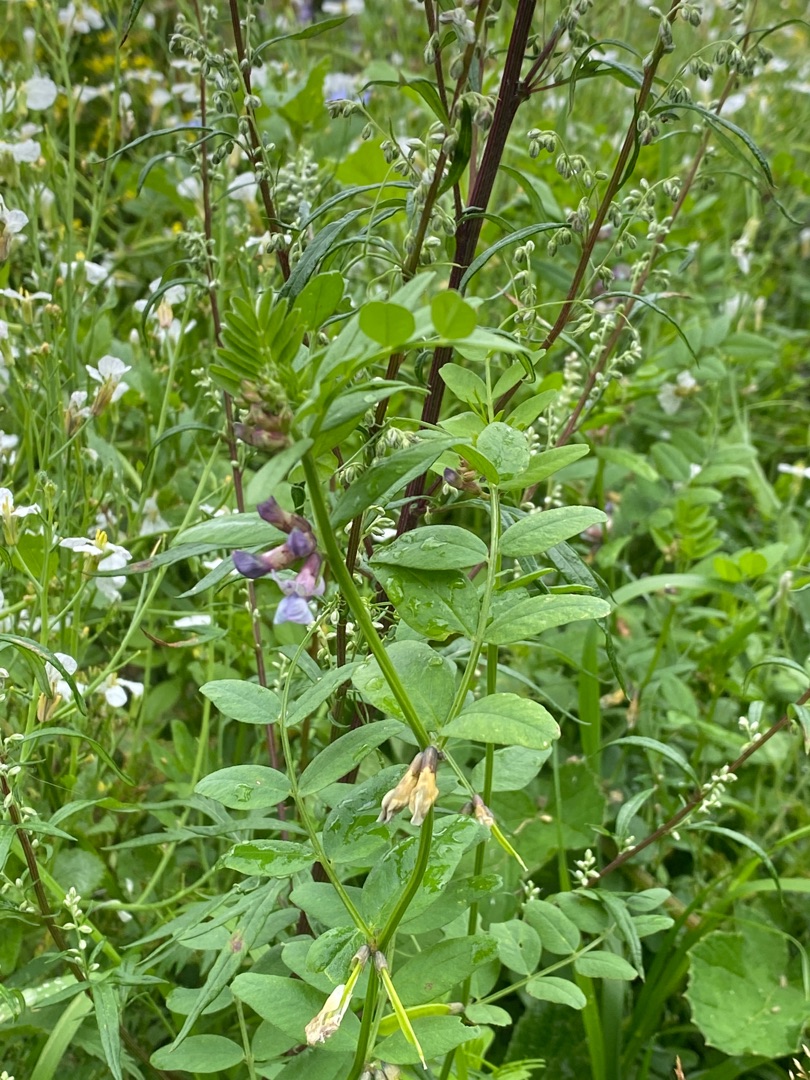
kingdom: Plantae
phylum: Tracheophyta
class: Magnoliopsida
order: Fabales
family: Fabaceae
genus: Vicia
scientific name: Vicia sepium
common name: Gærde-vikke
